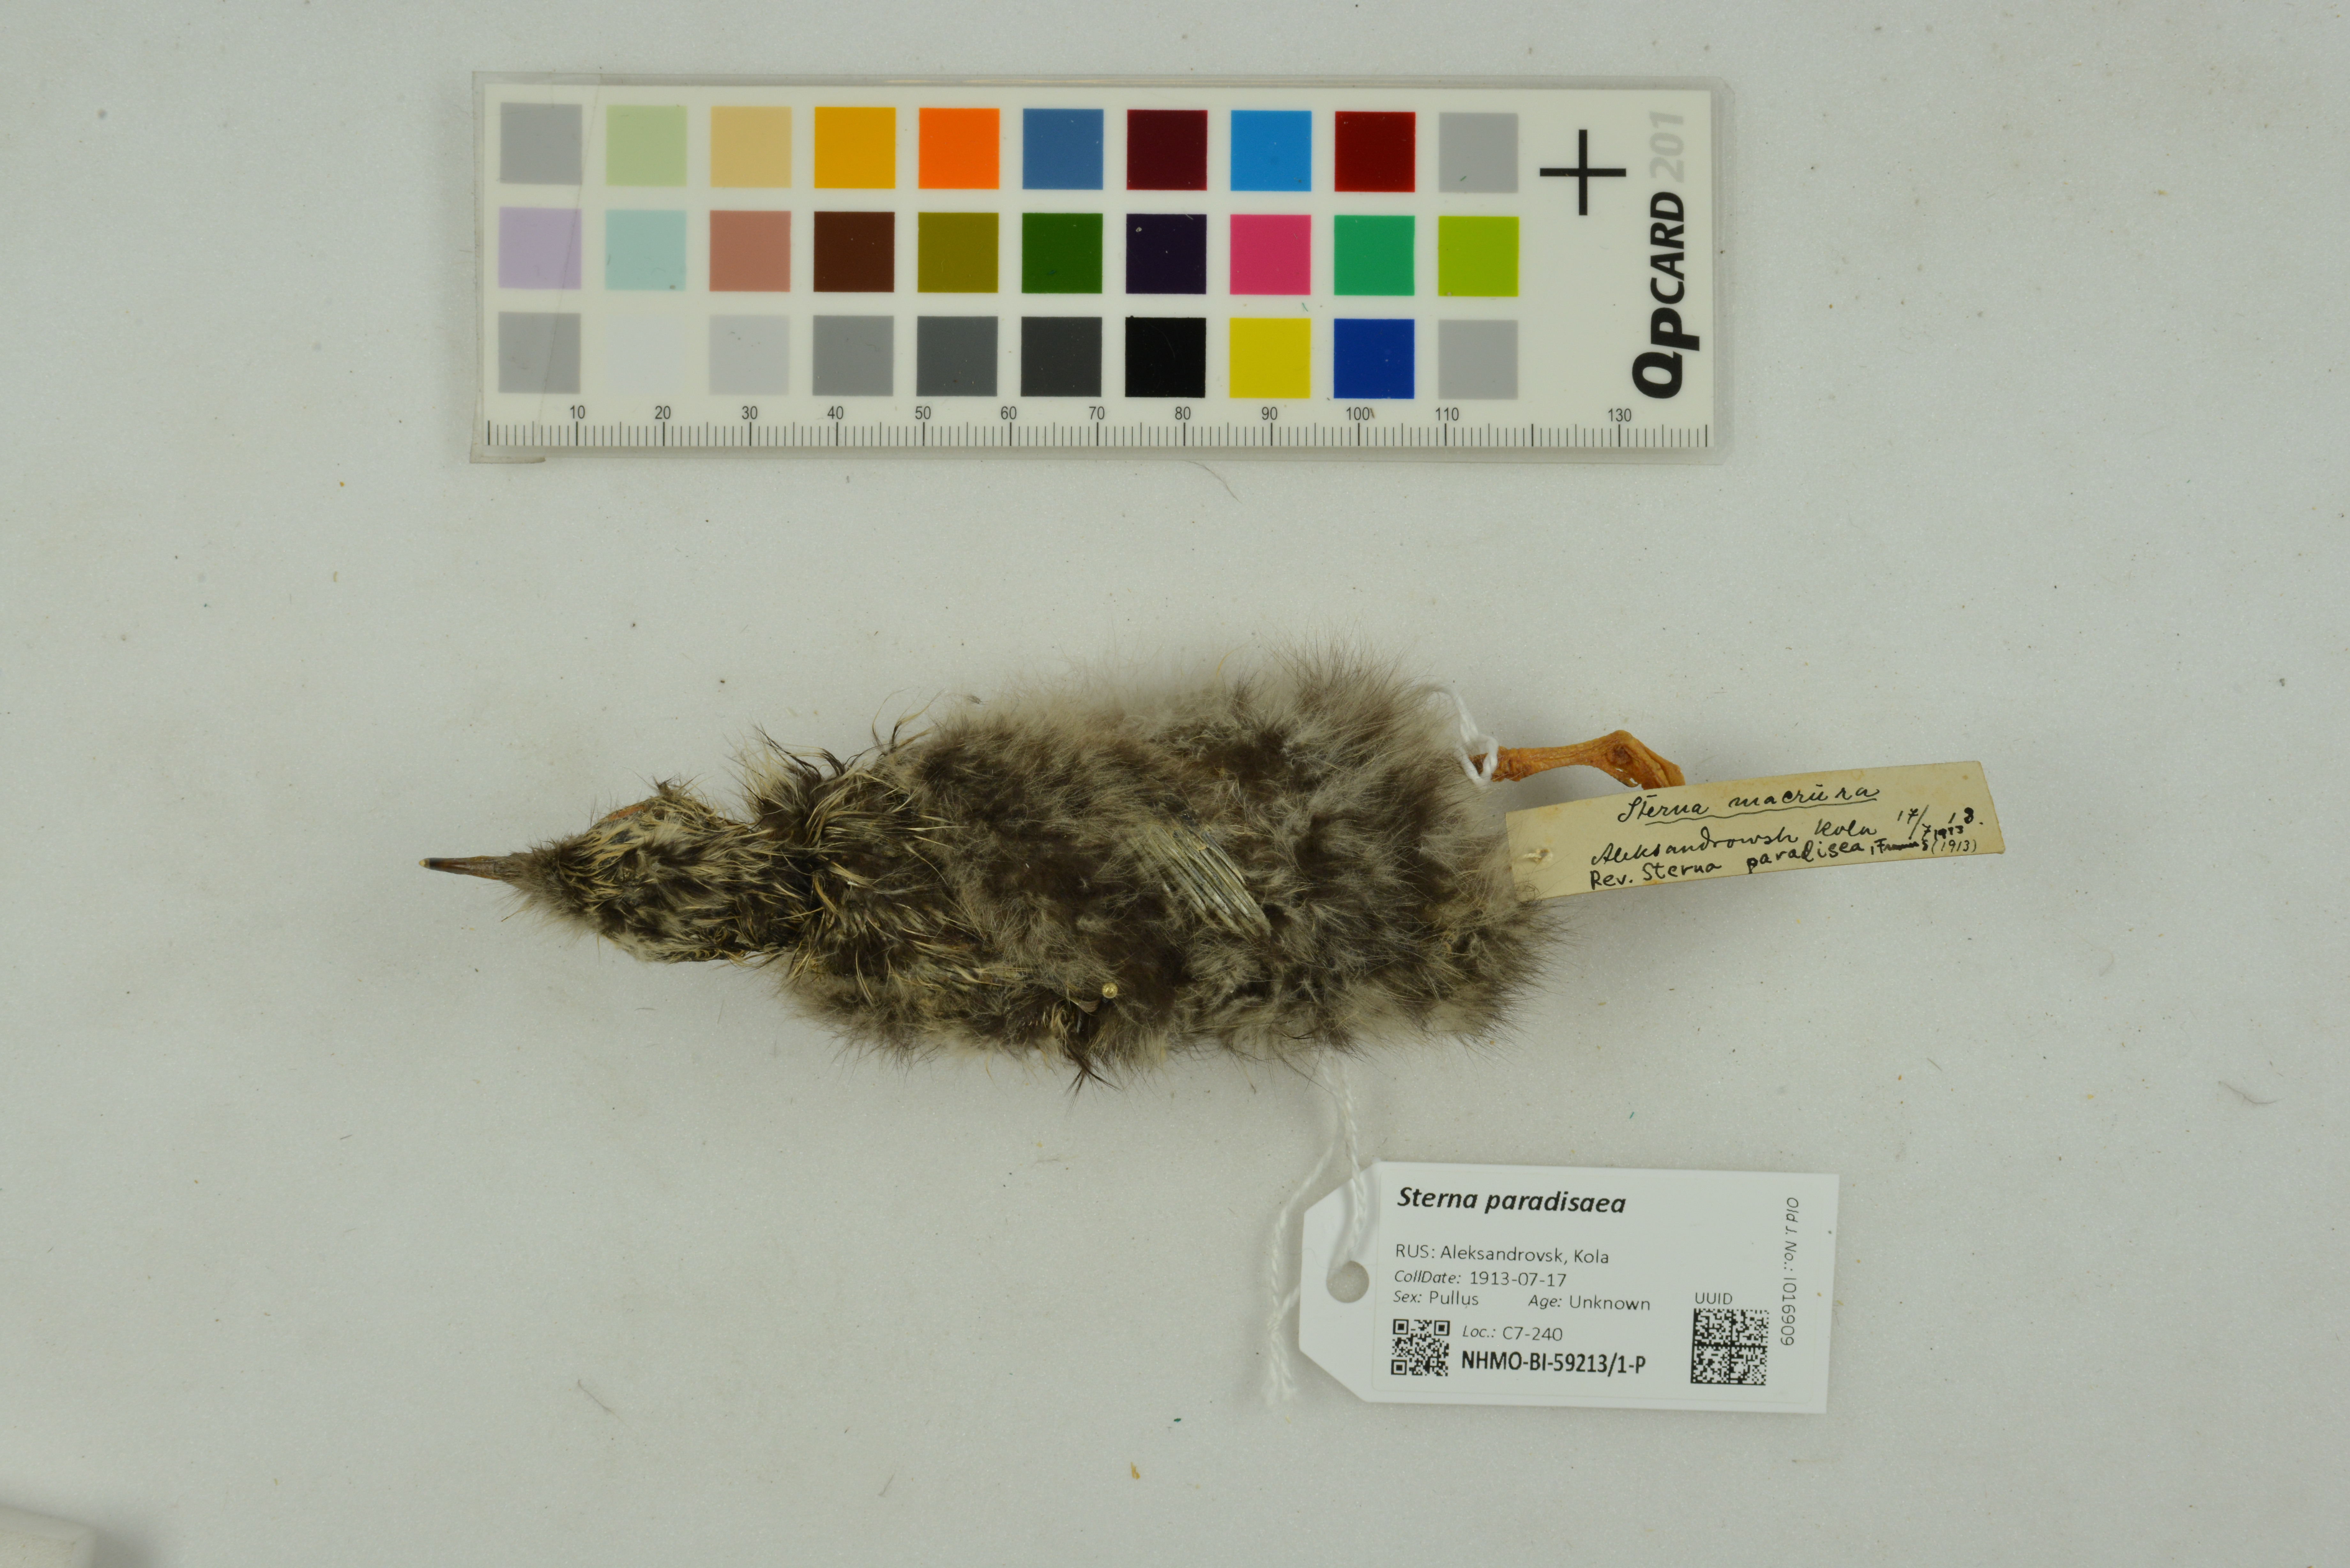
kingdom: Animalia
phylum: Chordata
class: Aves
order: Charadriiformes
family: Laridae
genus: Sterna
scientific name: Sterna paradisaea
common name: Arctic tern
